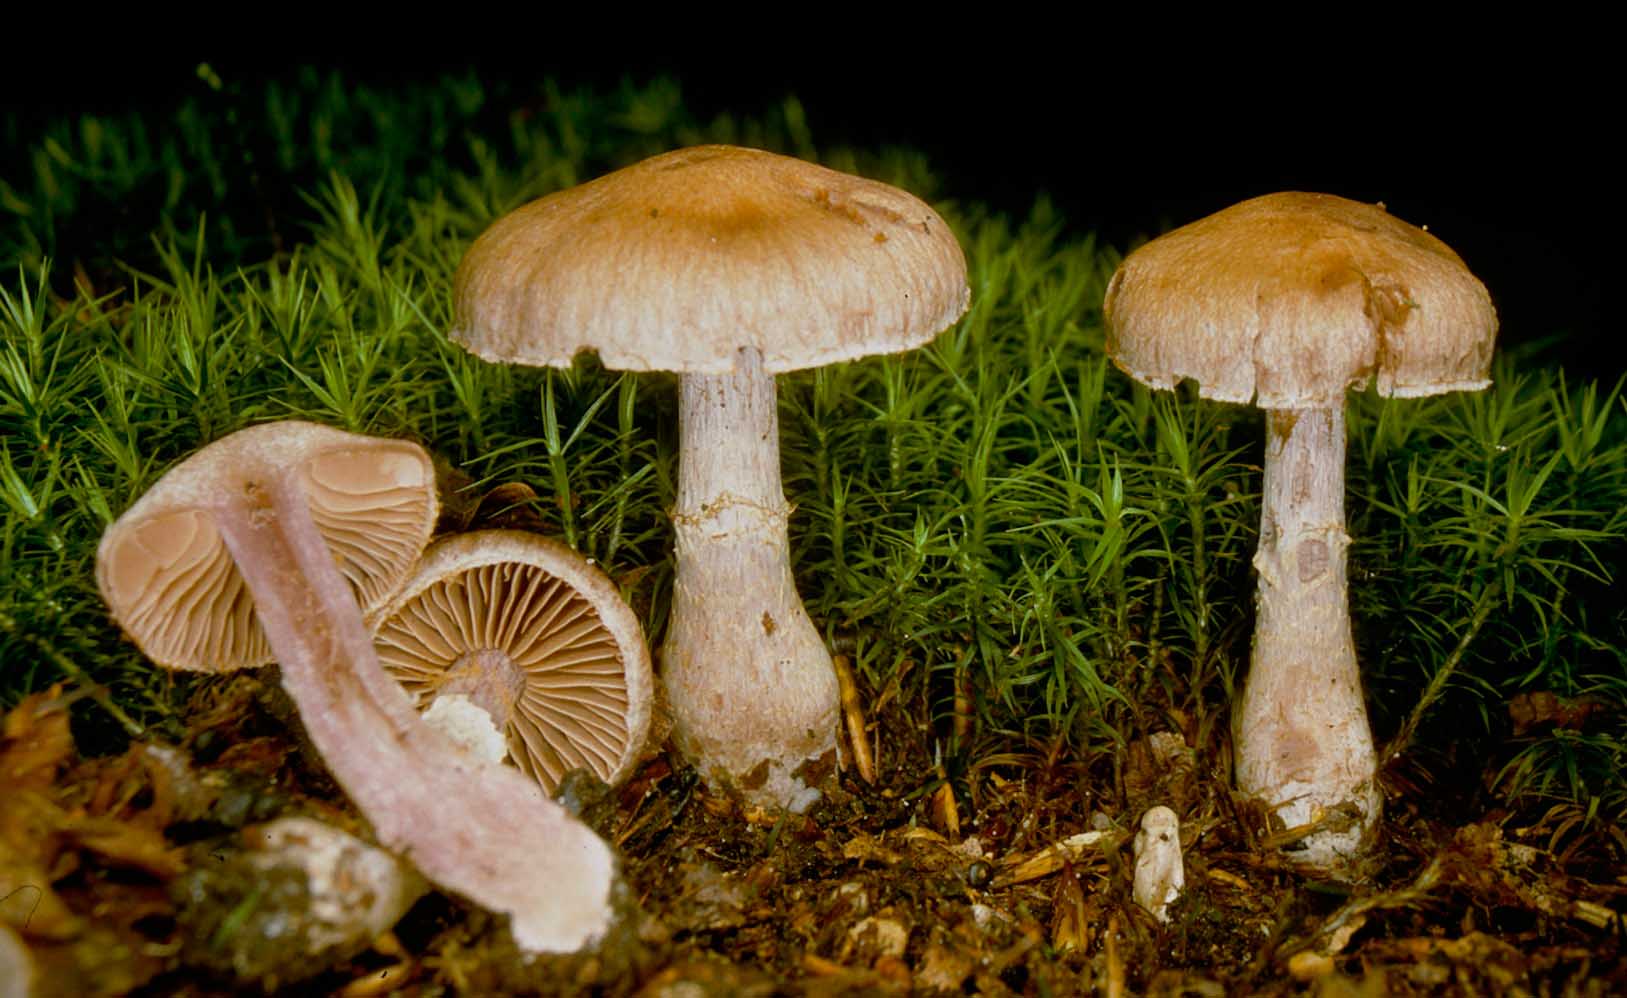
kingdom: Fungi
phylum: Basidiomycota
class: Agaricomycetes
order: Agaricales
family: Cortinariaceae
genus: Cortinarius
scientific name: Cortinarius torvus
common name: champignonagtig slørhat
